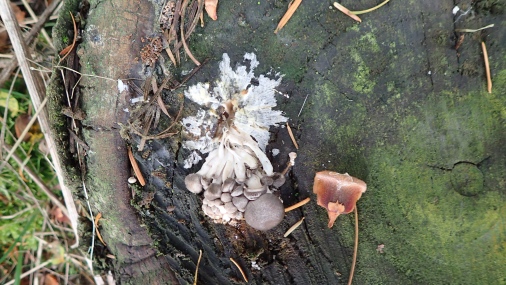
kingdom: Fungi
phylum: Basidiomycota
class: Agaricomycetes
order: Agaricales
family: Pleurotaceae
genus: Pleurotus
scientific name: Pleurotus ostreatus
